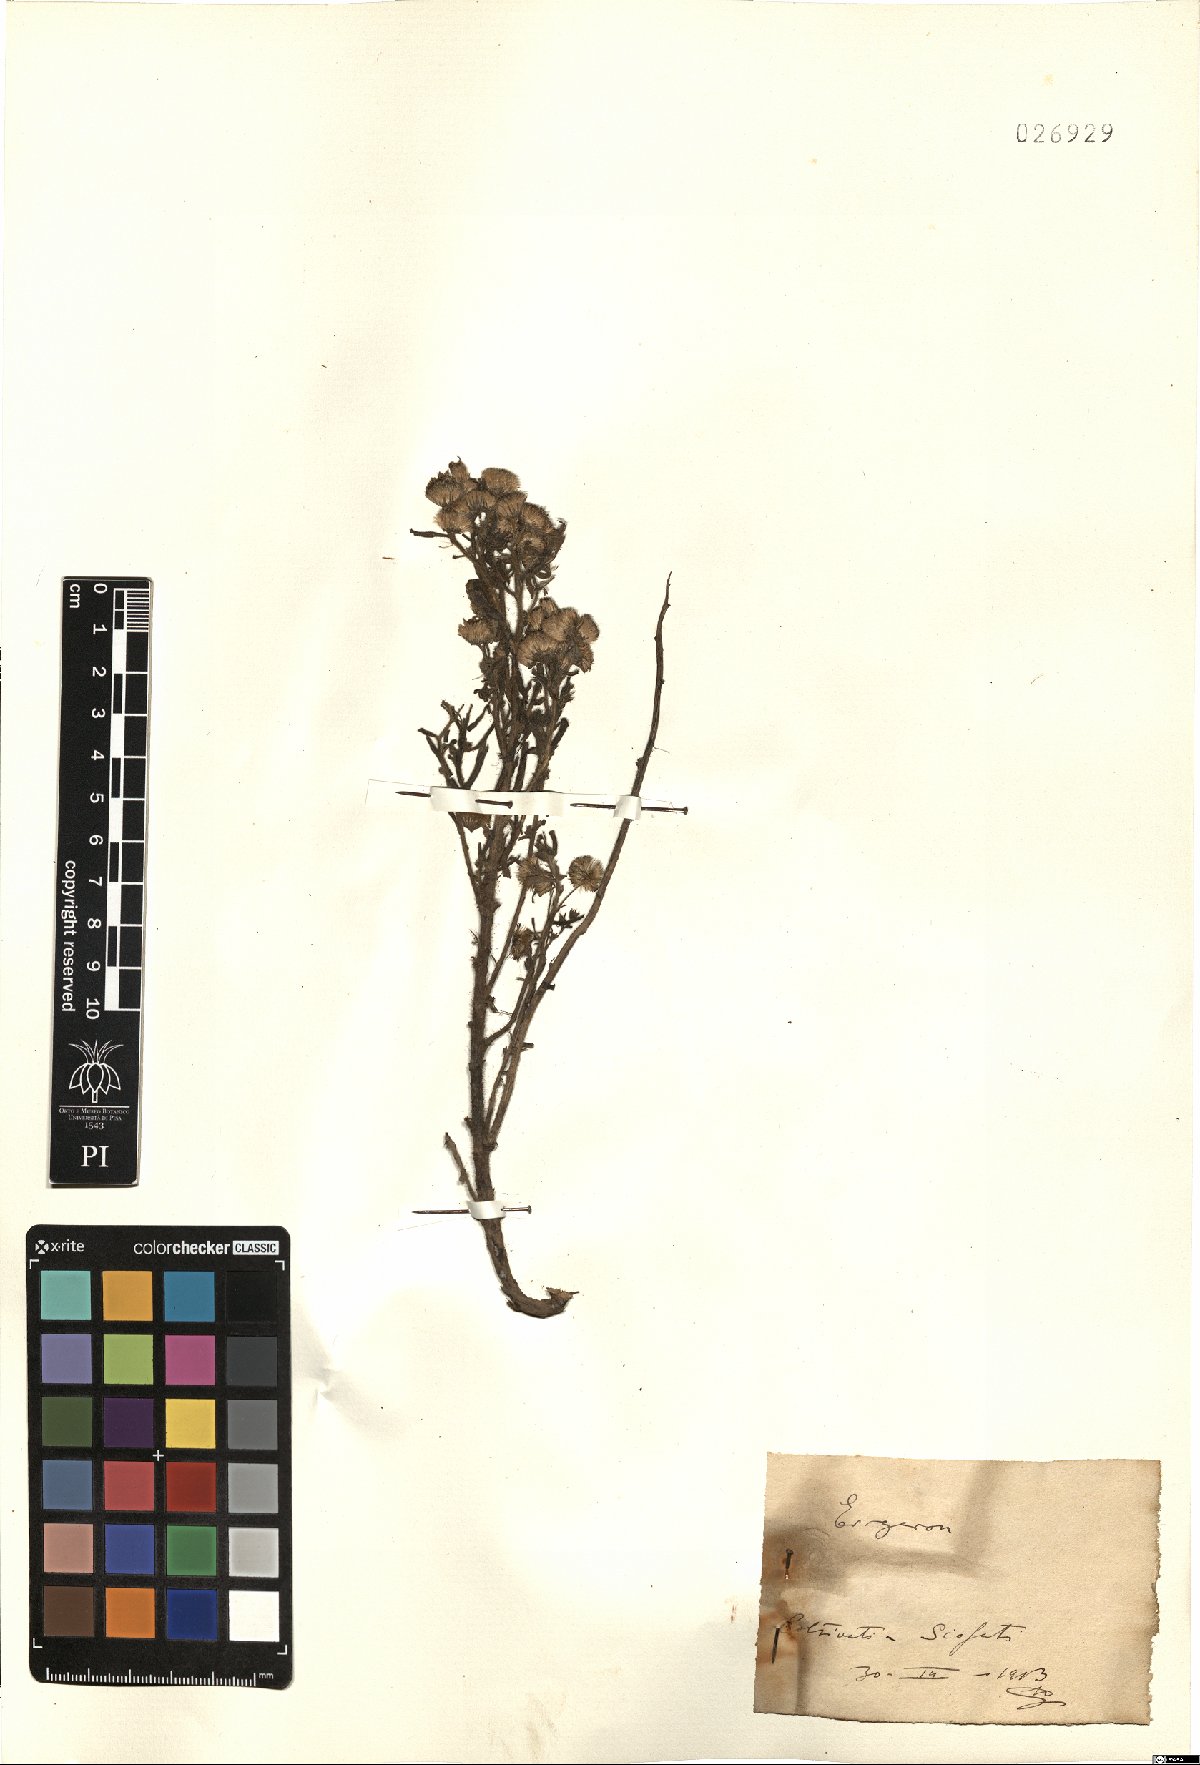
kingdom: Plantae
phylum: Tracheophyta
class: Magnoliopsida
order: Asterales
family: Asteraceae
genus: Erigeron
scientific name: Erigeron
